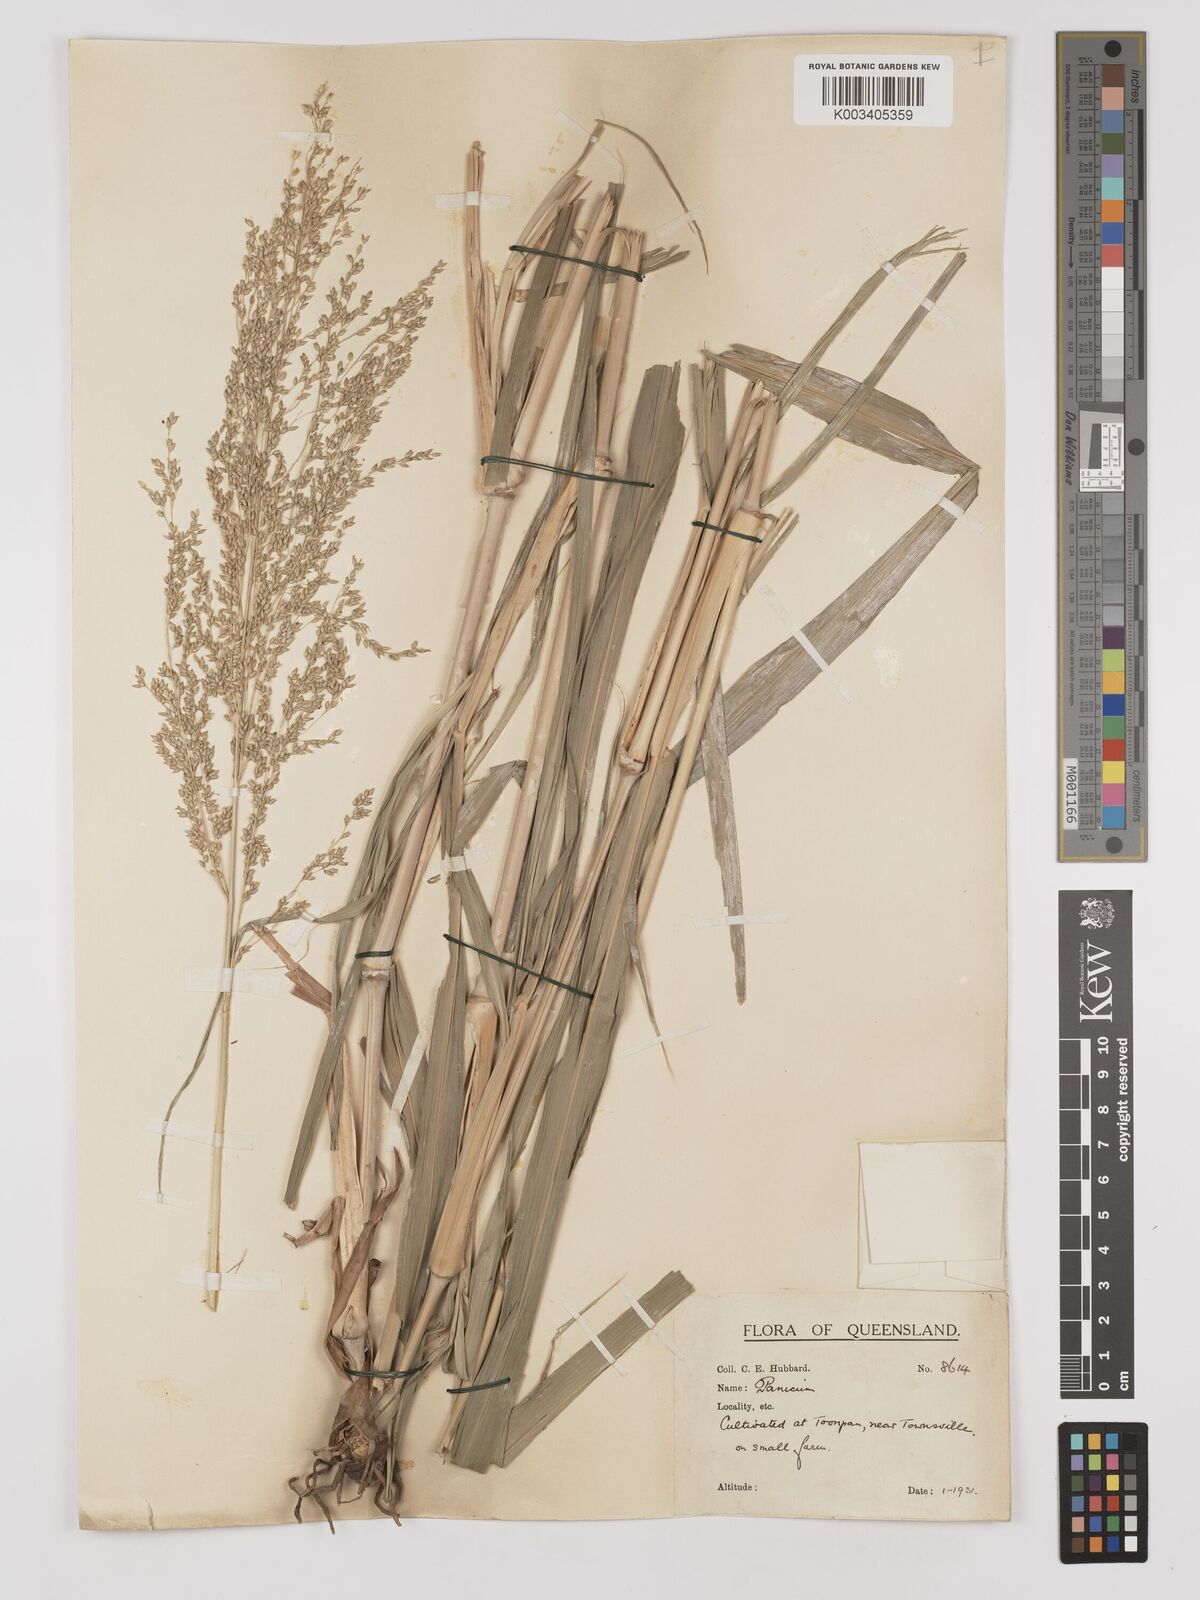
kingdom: Plantae
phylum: Tracheophyta
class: Liliopsida
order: Poales
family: Poaceae
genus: Panicum
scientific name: Panicum antidotale
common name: Blue panicum
